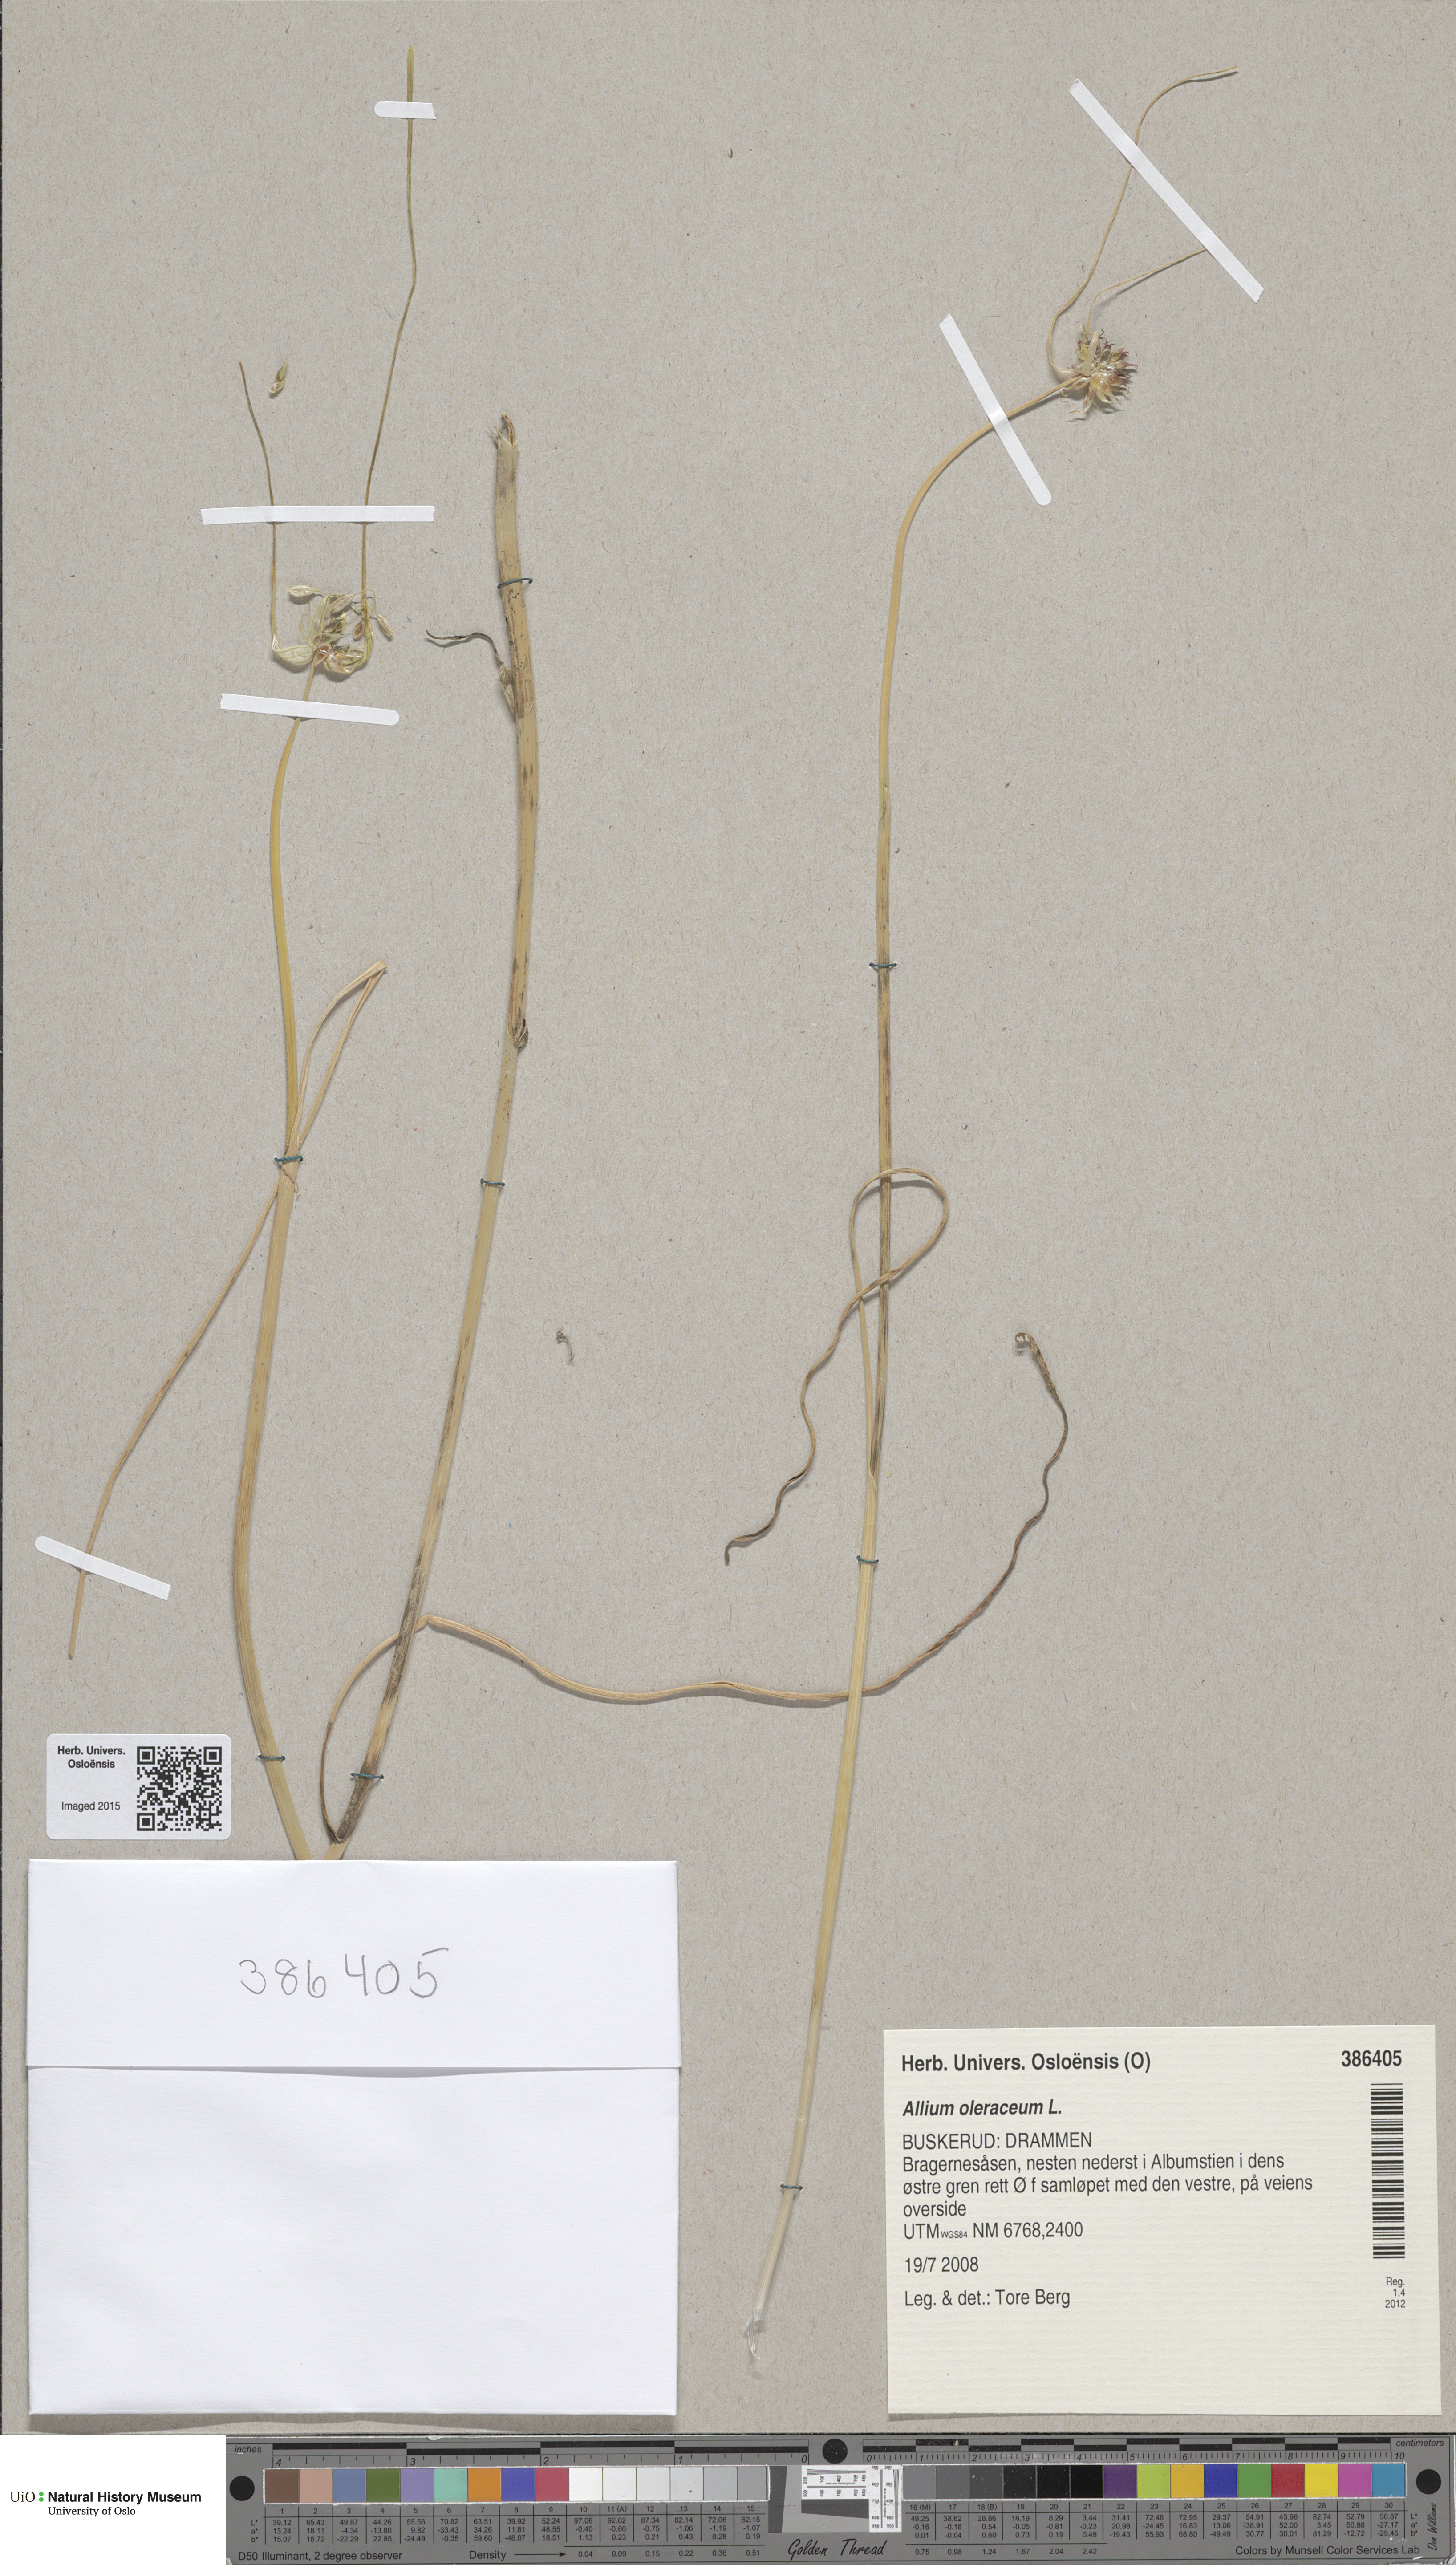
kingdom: Plantae
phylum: Tracheophyta
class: Liliopsida
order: Asparagales
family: Amaryllidaceae
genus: Allium
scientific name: Allium oleraceum
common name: Field garlic
